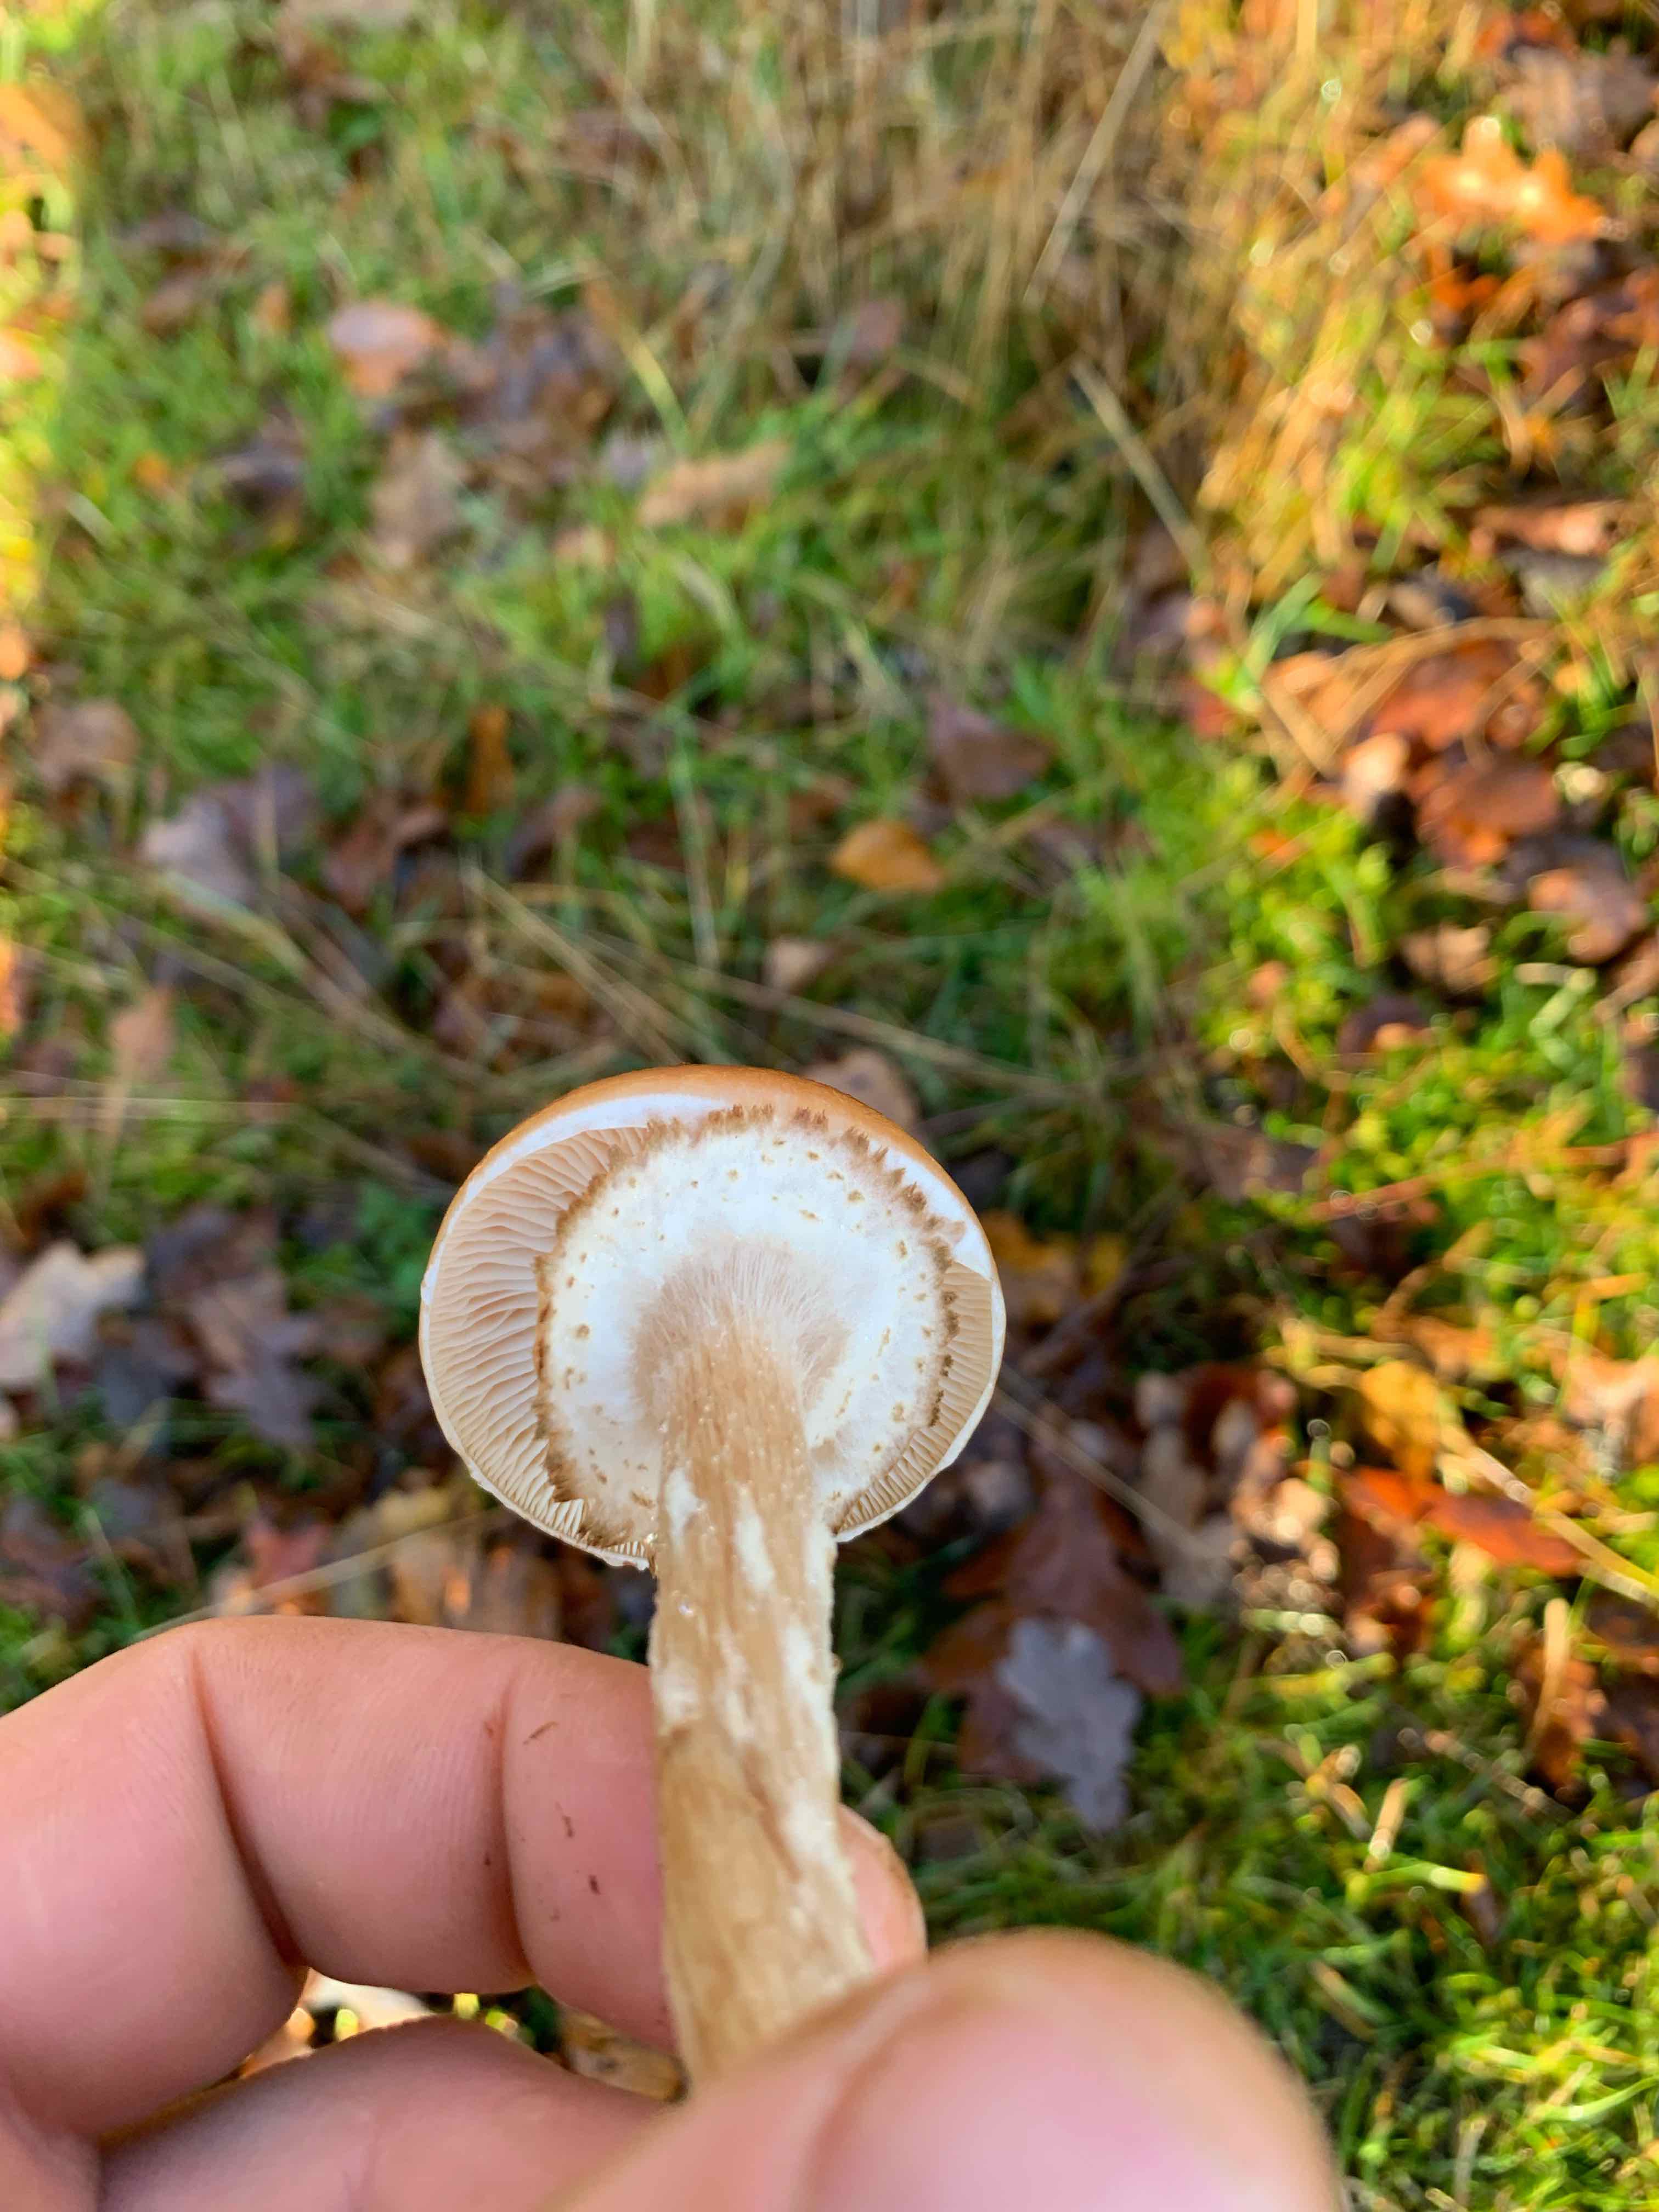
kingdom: Fungi
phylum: Basidiomycota
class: Agaricomycetes
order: Agaricales
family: Physalacriaceae
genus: Armillaria
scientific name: Armillaria ostoyae
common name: mørk honningsvamp
